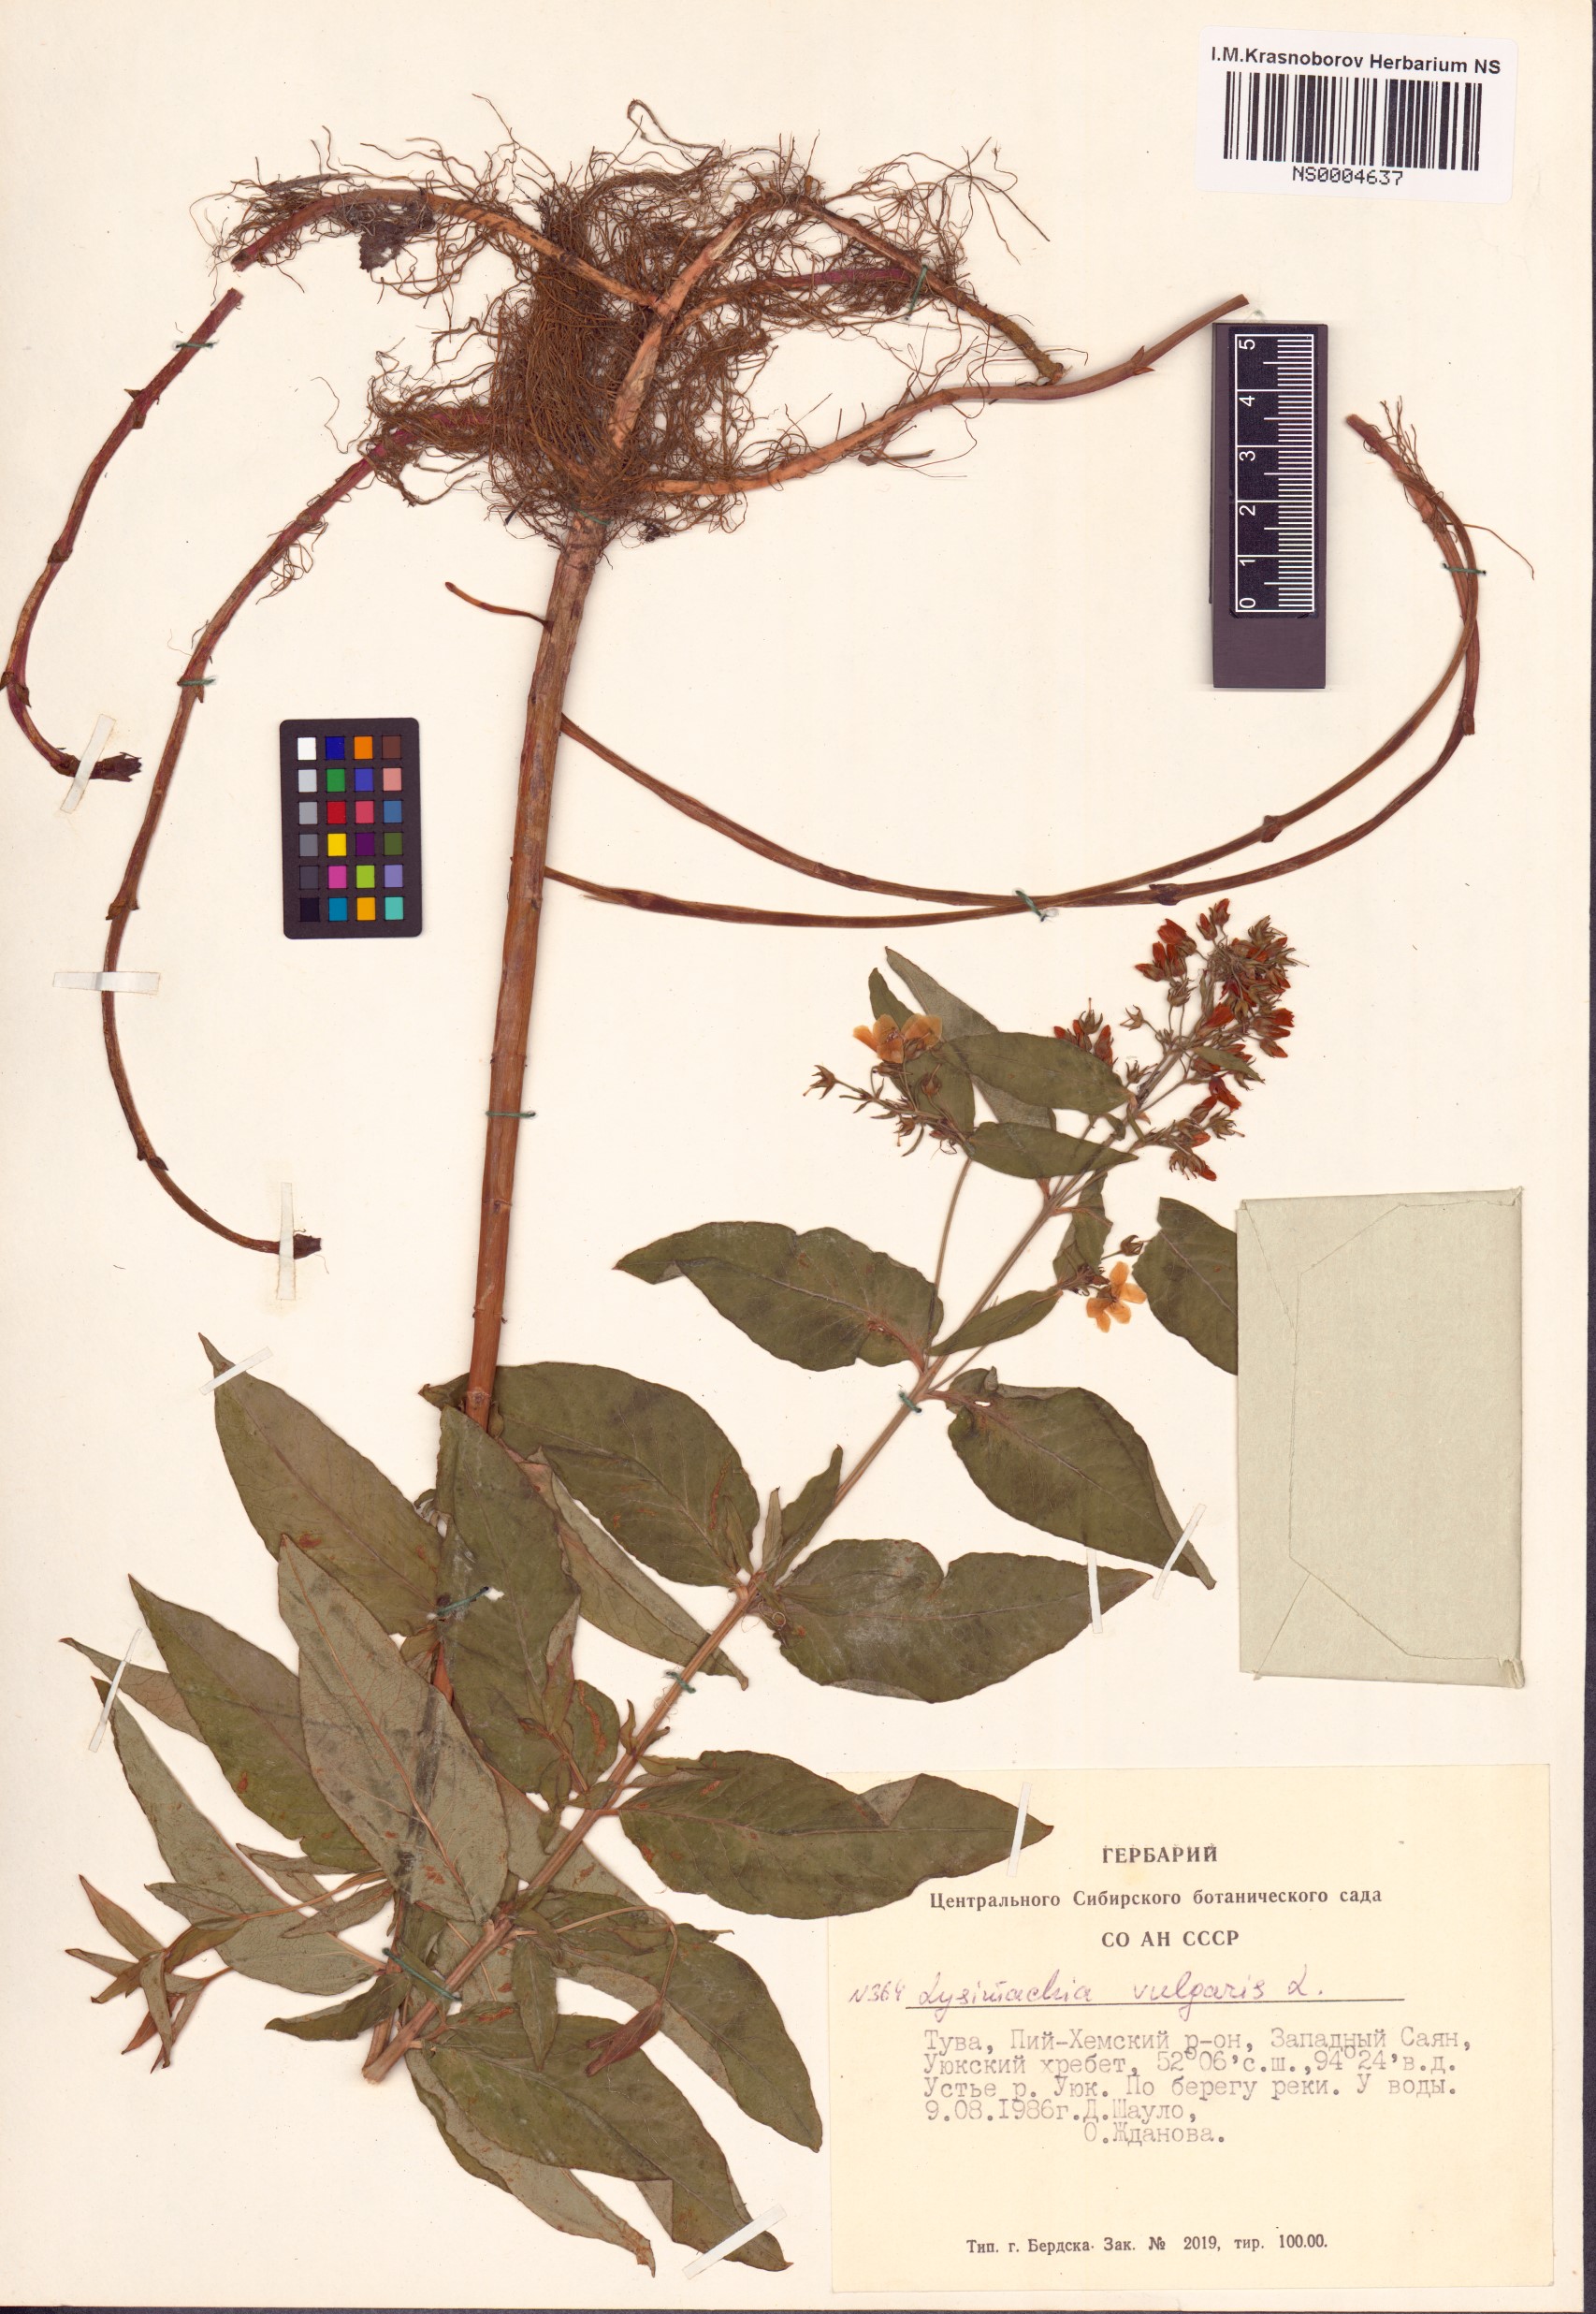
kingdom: Plantae
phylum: Tracheophyta
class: Magnoliopsida
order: Ericales
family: Primulaceae
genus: Lysimachia
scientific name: Lysimachia vulgaris
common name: Yellow loosestrife
